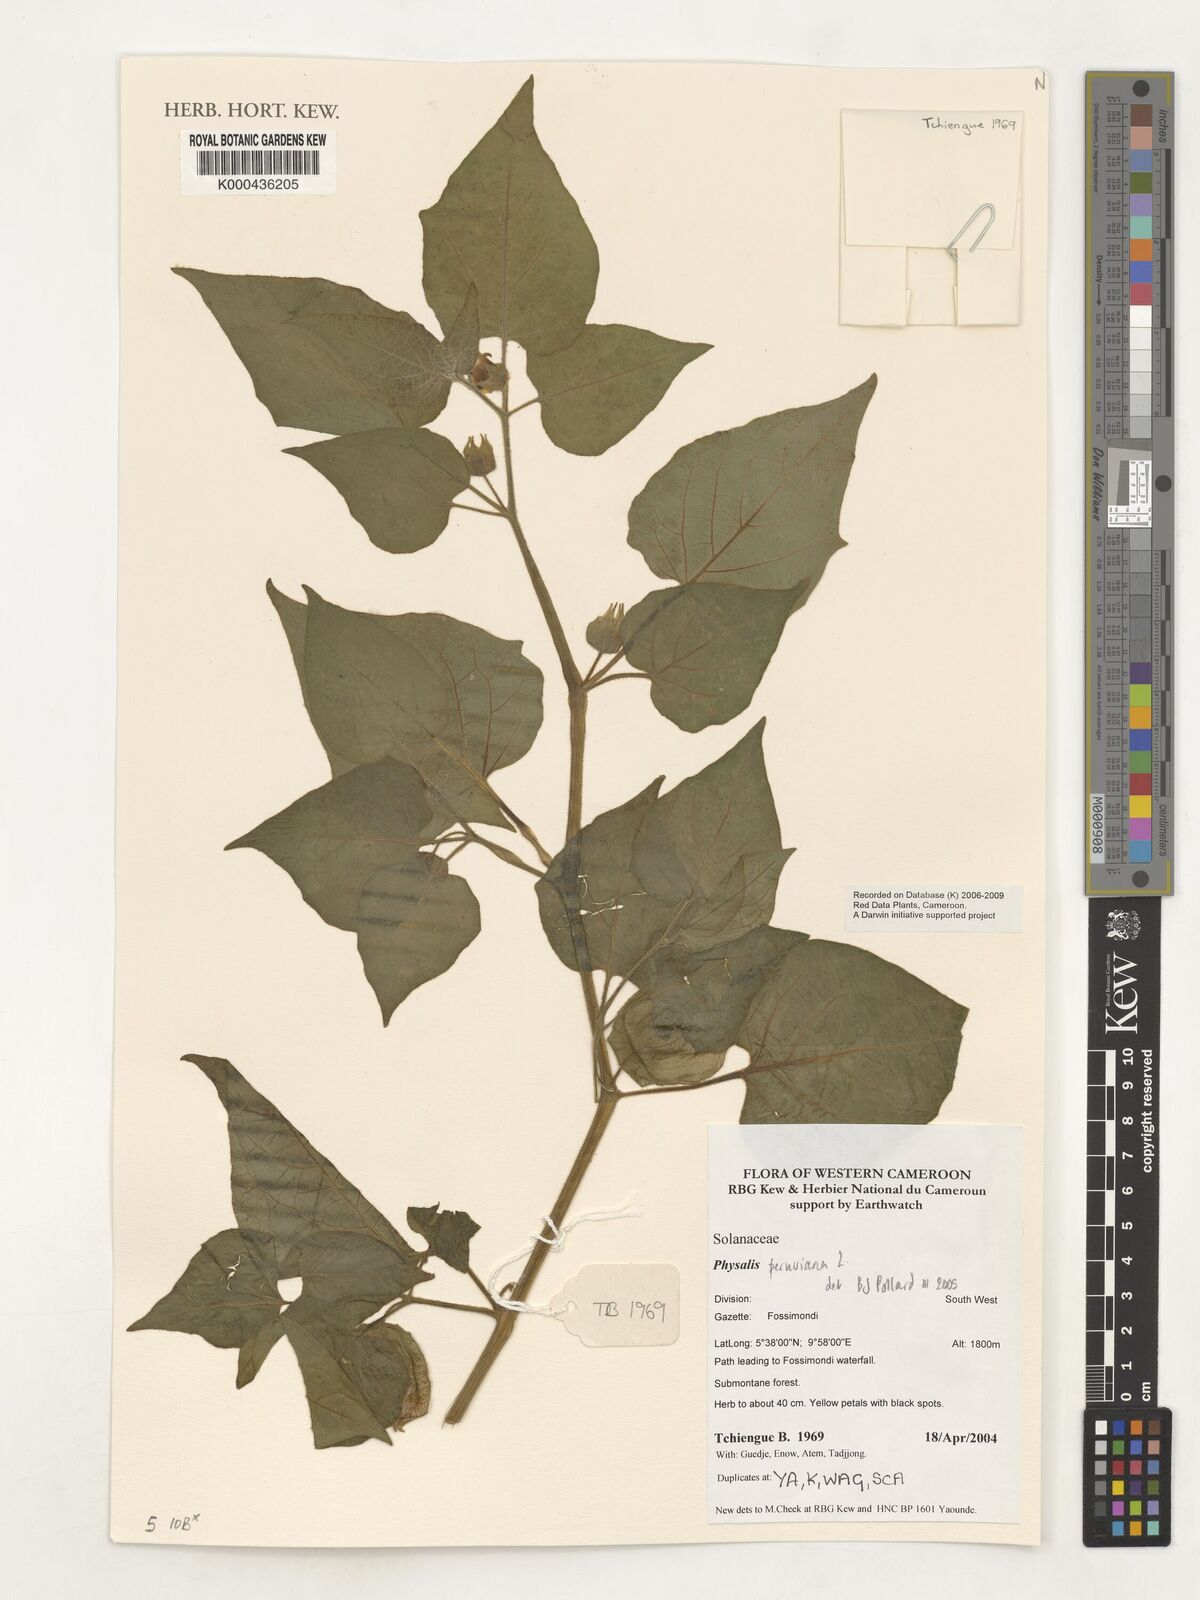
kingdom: Plantae
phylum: Tracheophyta
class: Magnoliopsida
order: Solanales
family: Solanaceae
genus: Physalis
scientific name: Physalis peruviana
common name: Cape-gooseberry
